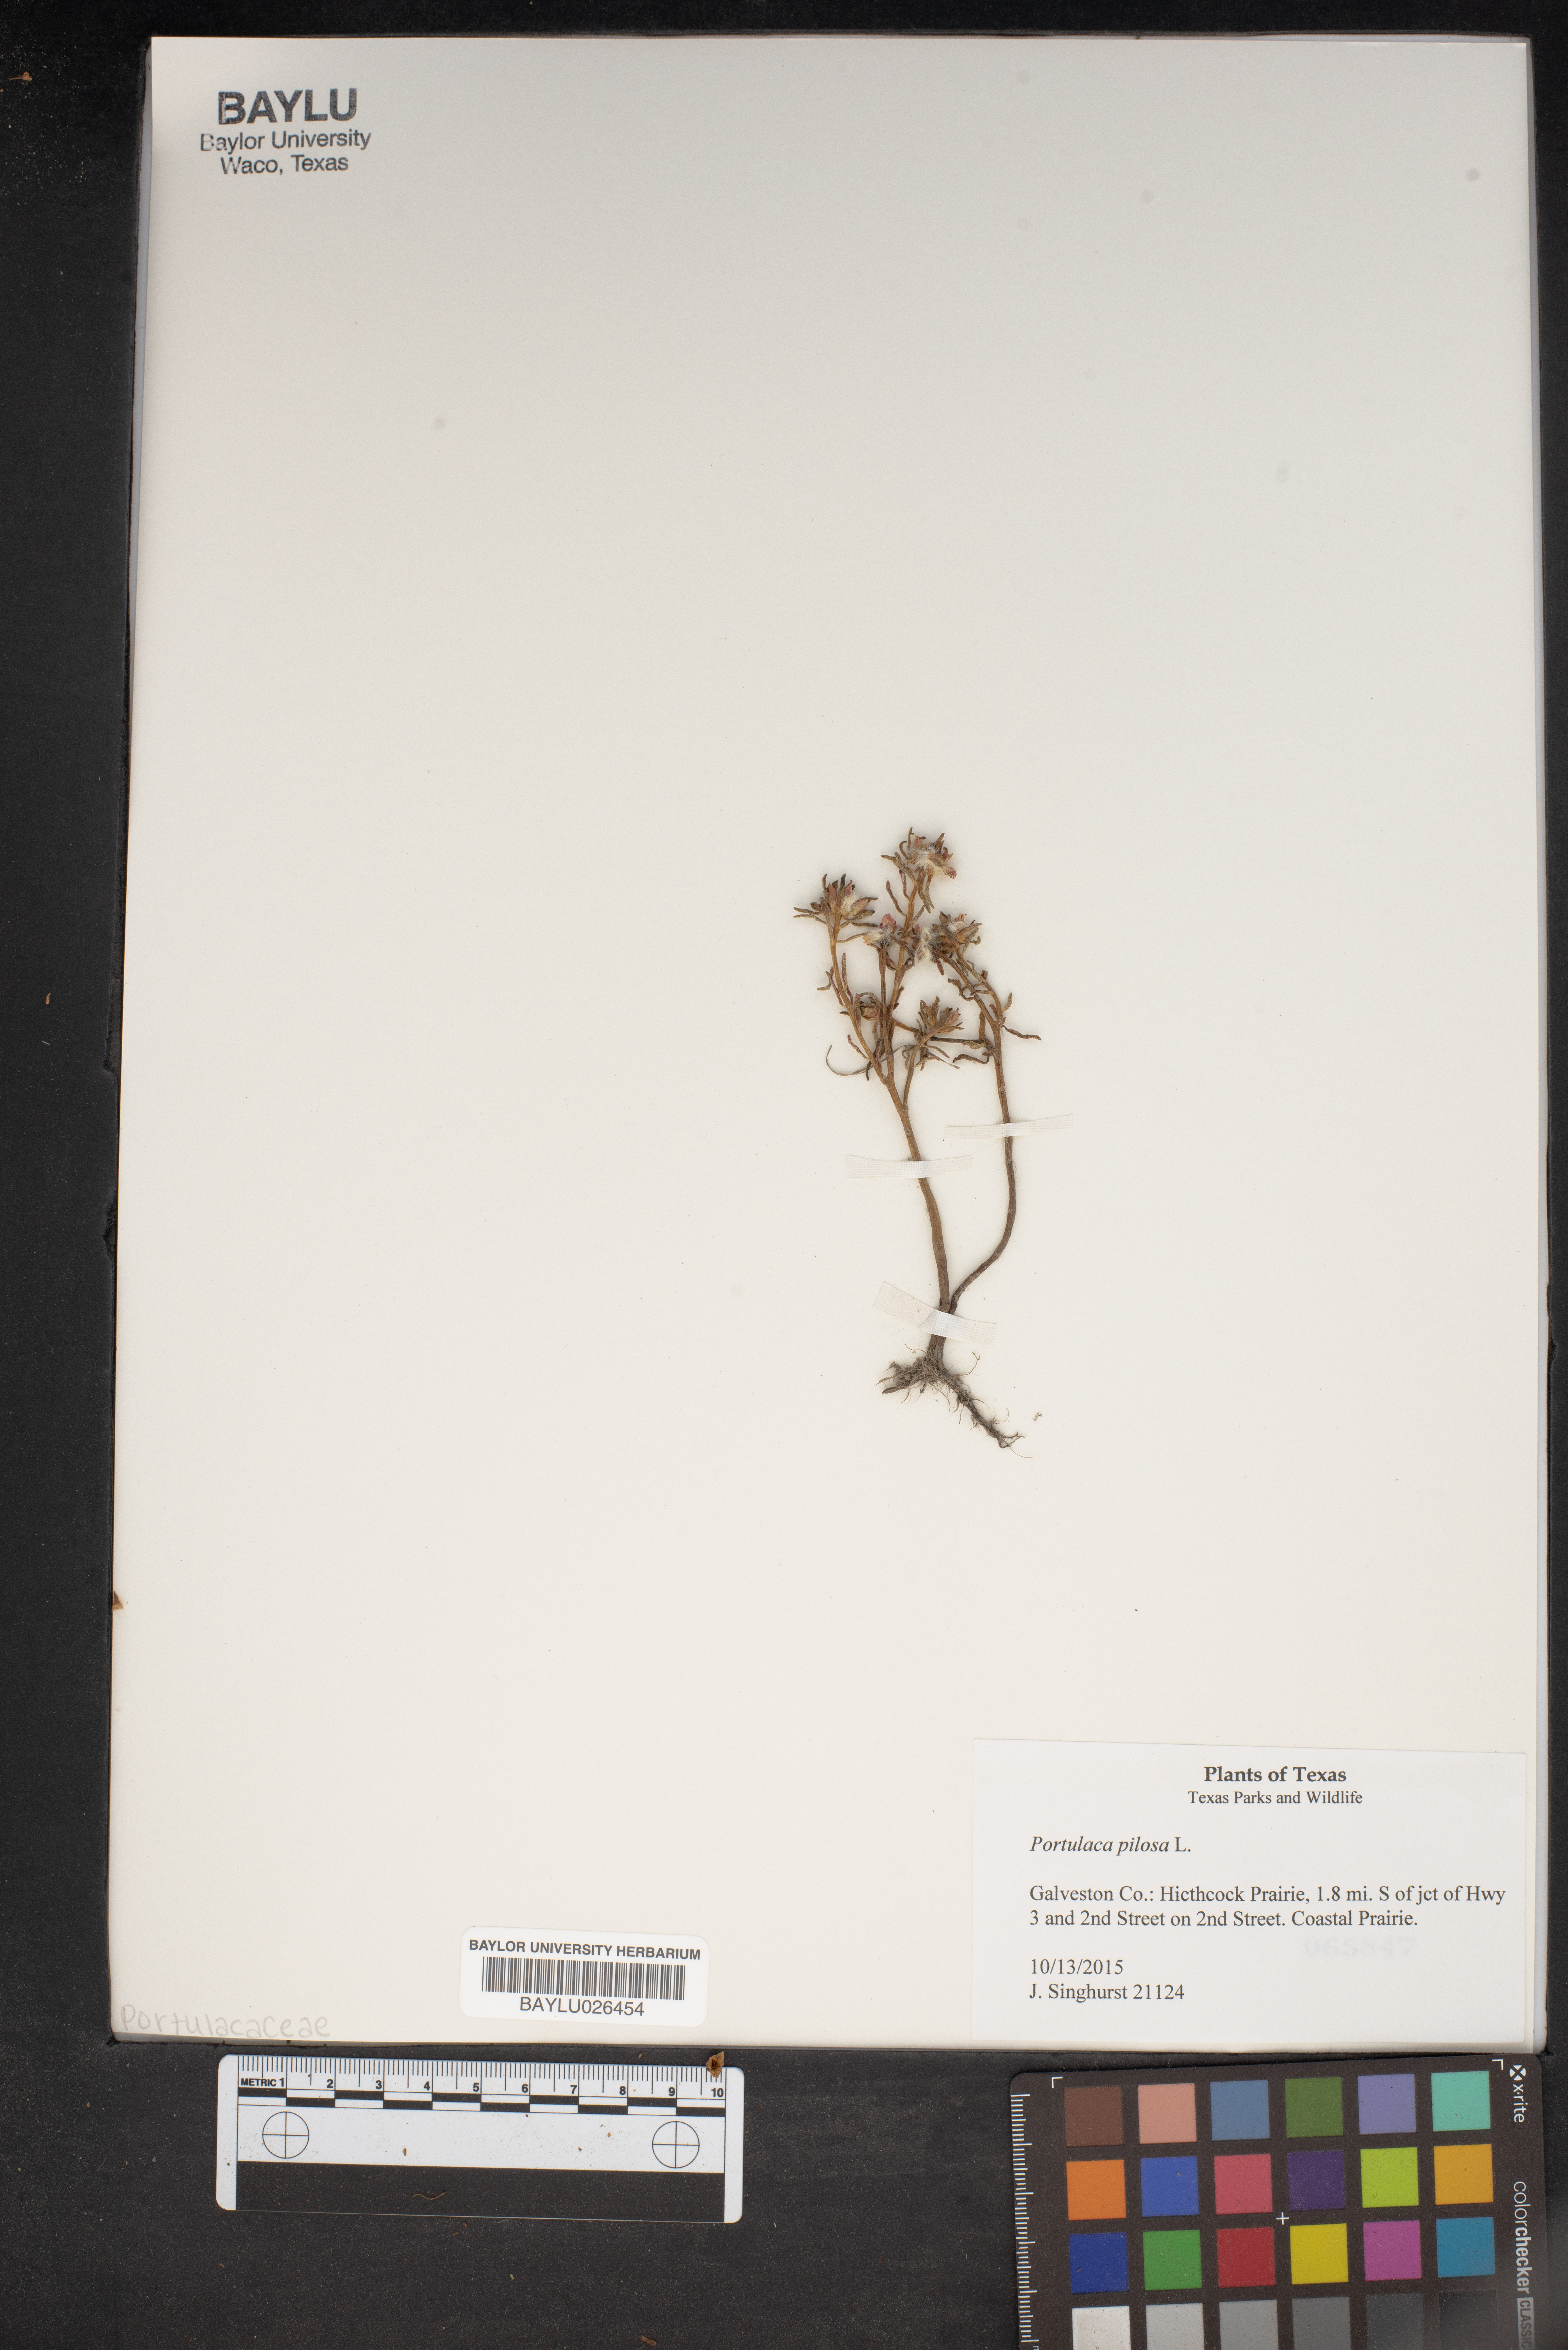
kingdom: Plantae
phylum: Tracheophyta
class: Magnoliopsida
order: Caryophyllales
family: Portulacaceae
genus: Portulaca
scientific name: Portulaca pilosa
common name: Kiss me quick
